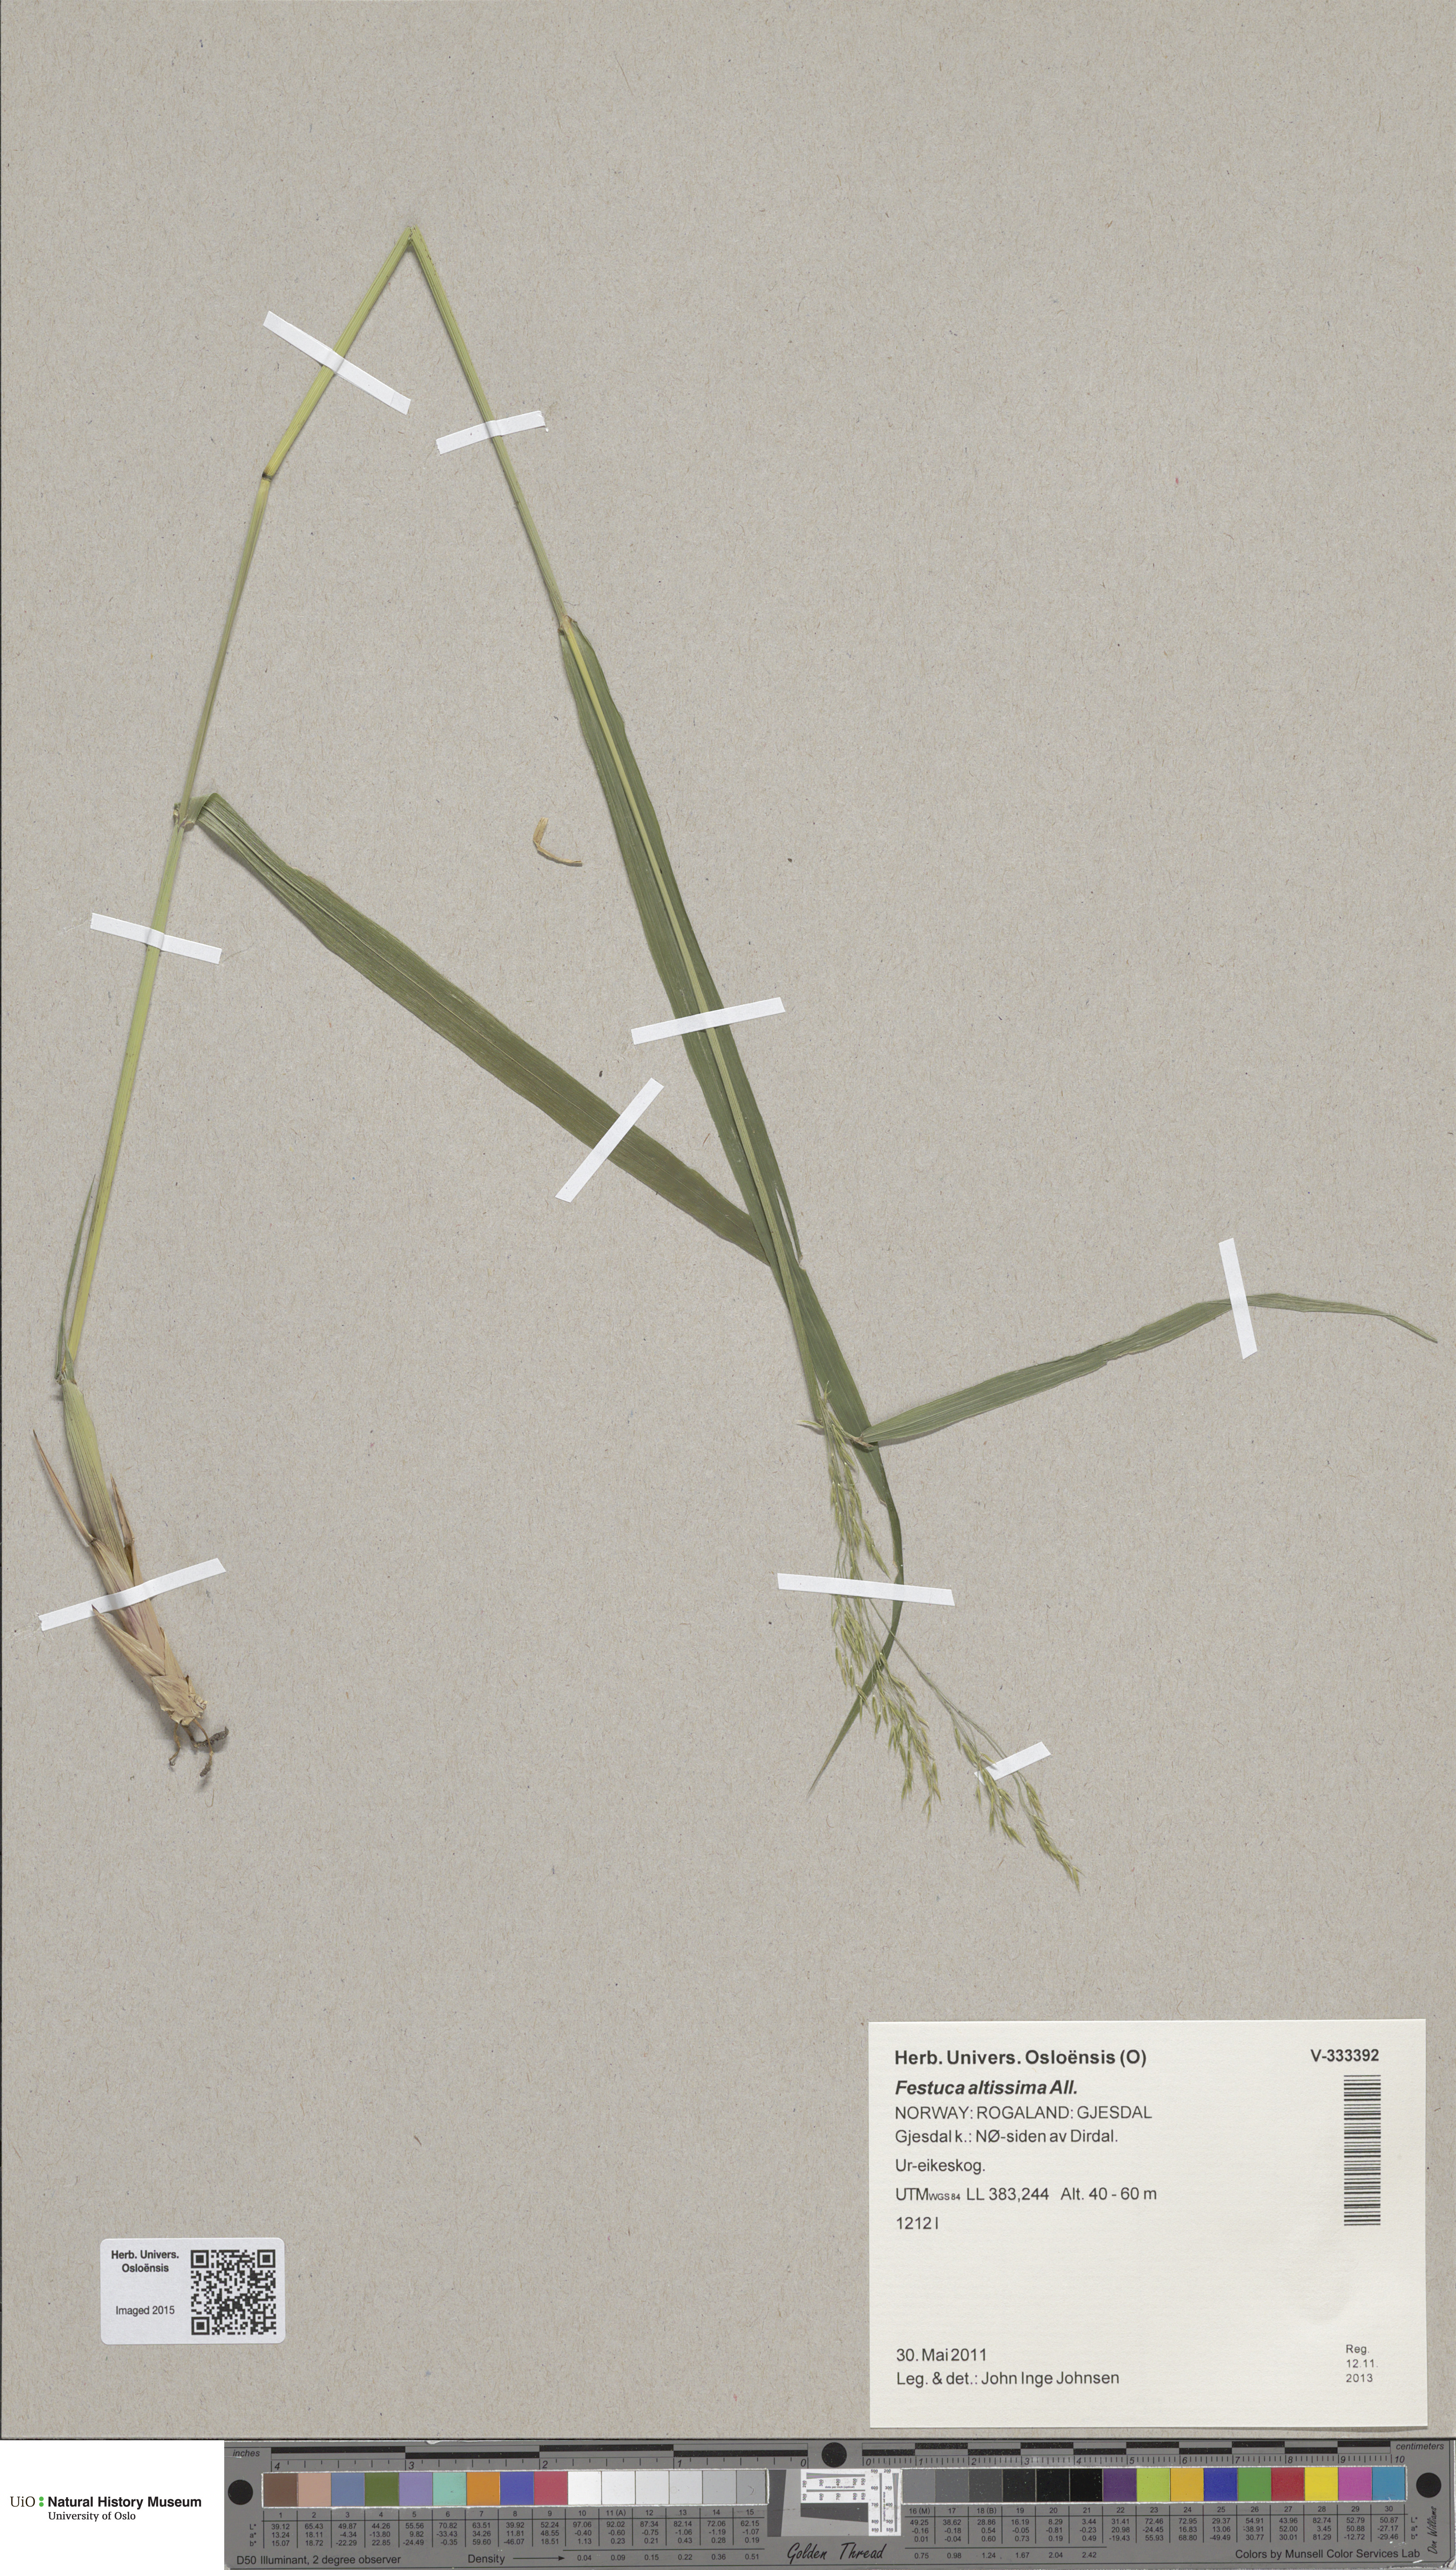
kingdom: Plantae
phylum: Tracheophyta
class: Liliopsida
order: Poales
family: Poaceae
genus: Festuca
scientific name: Festuca altissima
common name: Wood fescue
